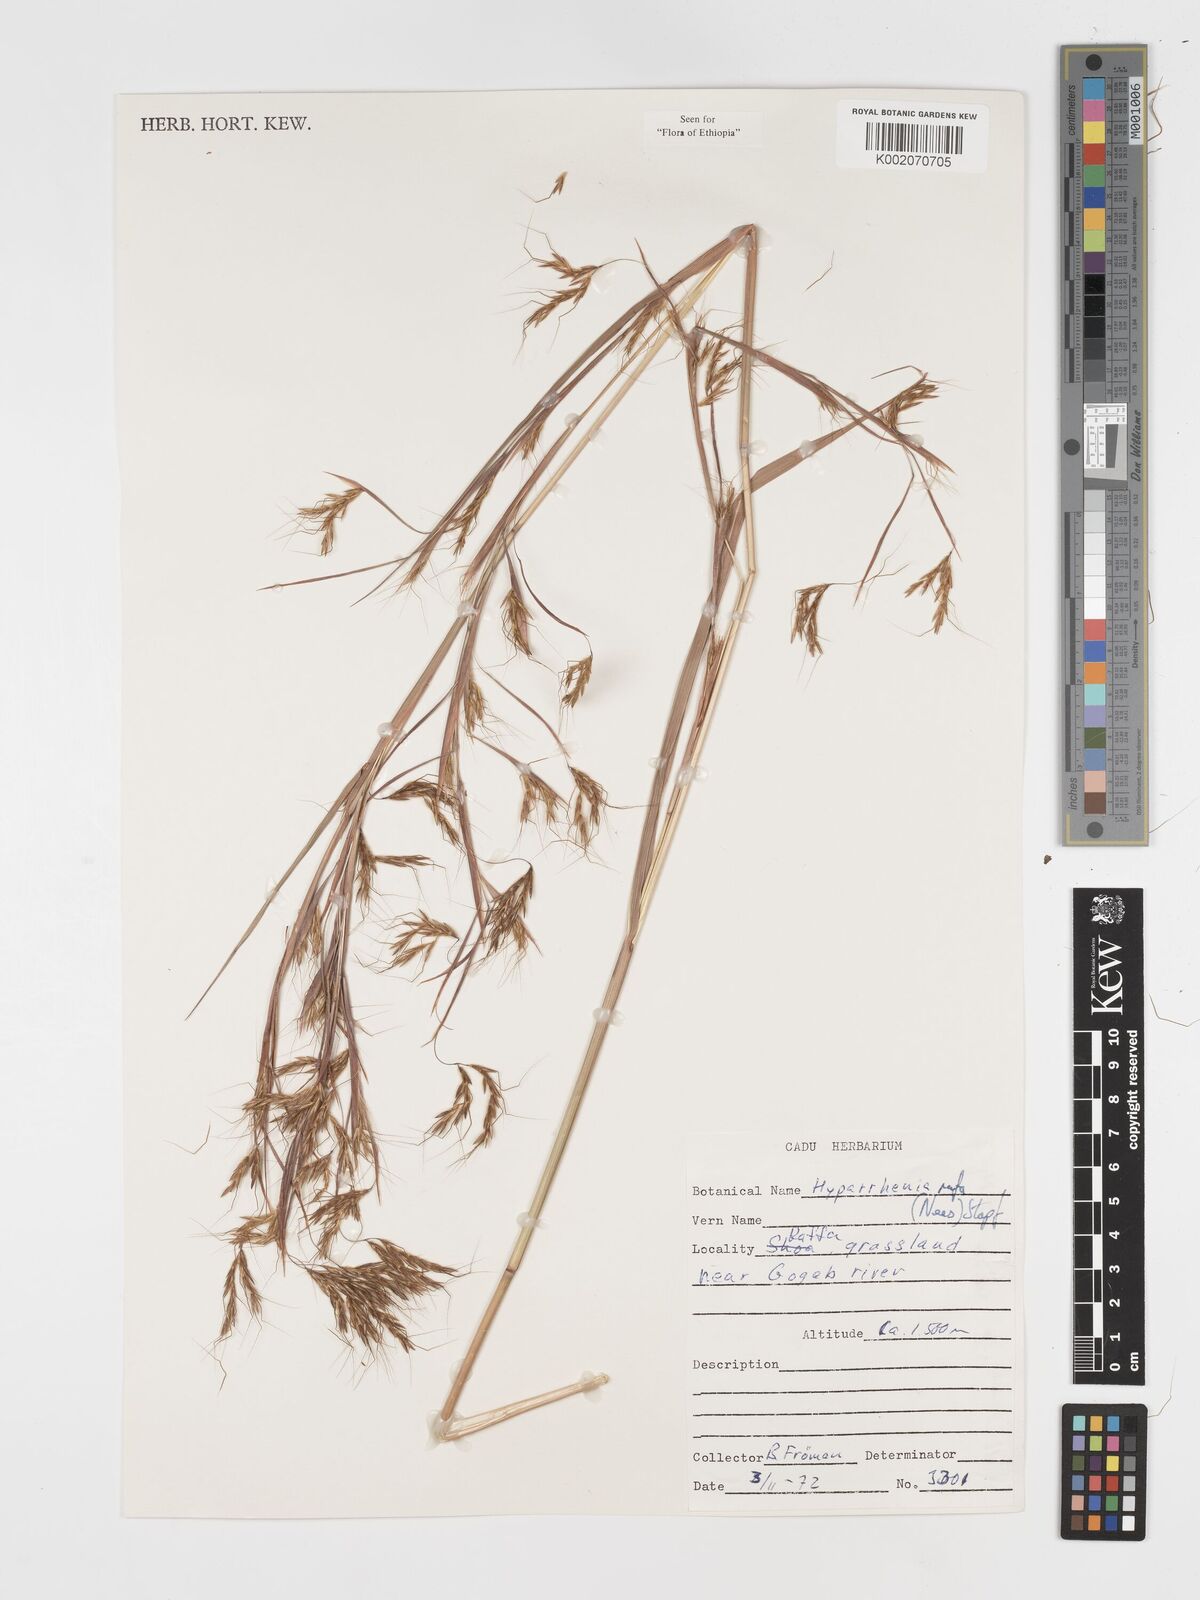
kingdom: Plantae
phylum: Tracheophyta
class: Liliopsida
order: Poales
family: Poaceae
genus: Hyparrhenia
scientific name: Hyparrhenia rufa
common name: Jaraguagrass
